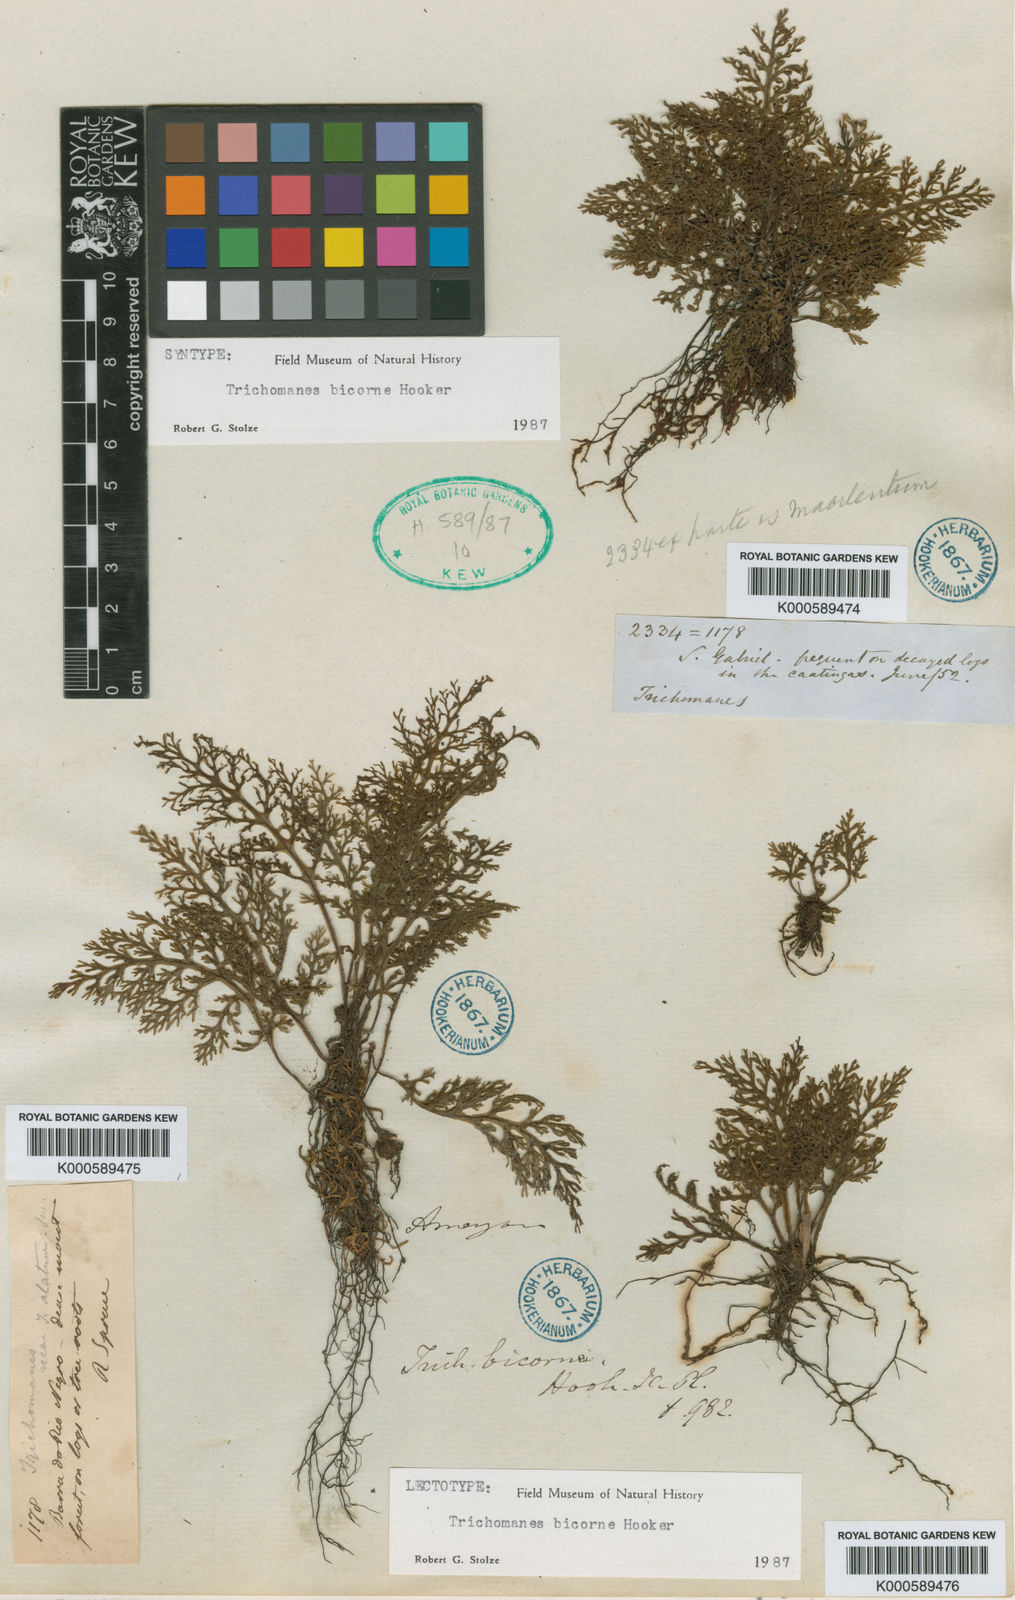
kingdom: Plantae
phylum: Tracheophyta
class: Polypodiopsida
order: Hymenophyllales
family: Hymenophyllaceae
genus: Trichomanes
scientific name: Trichomanes bicorne
